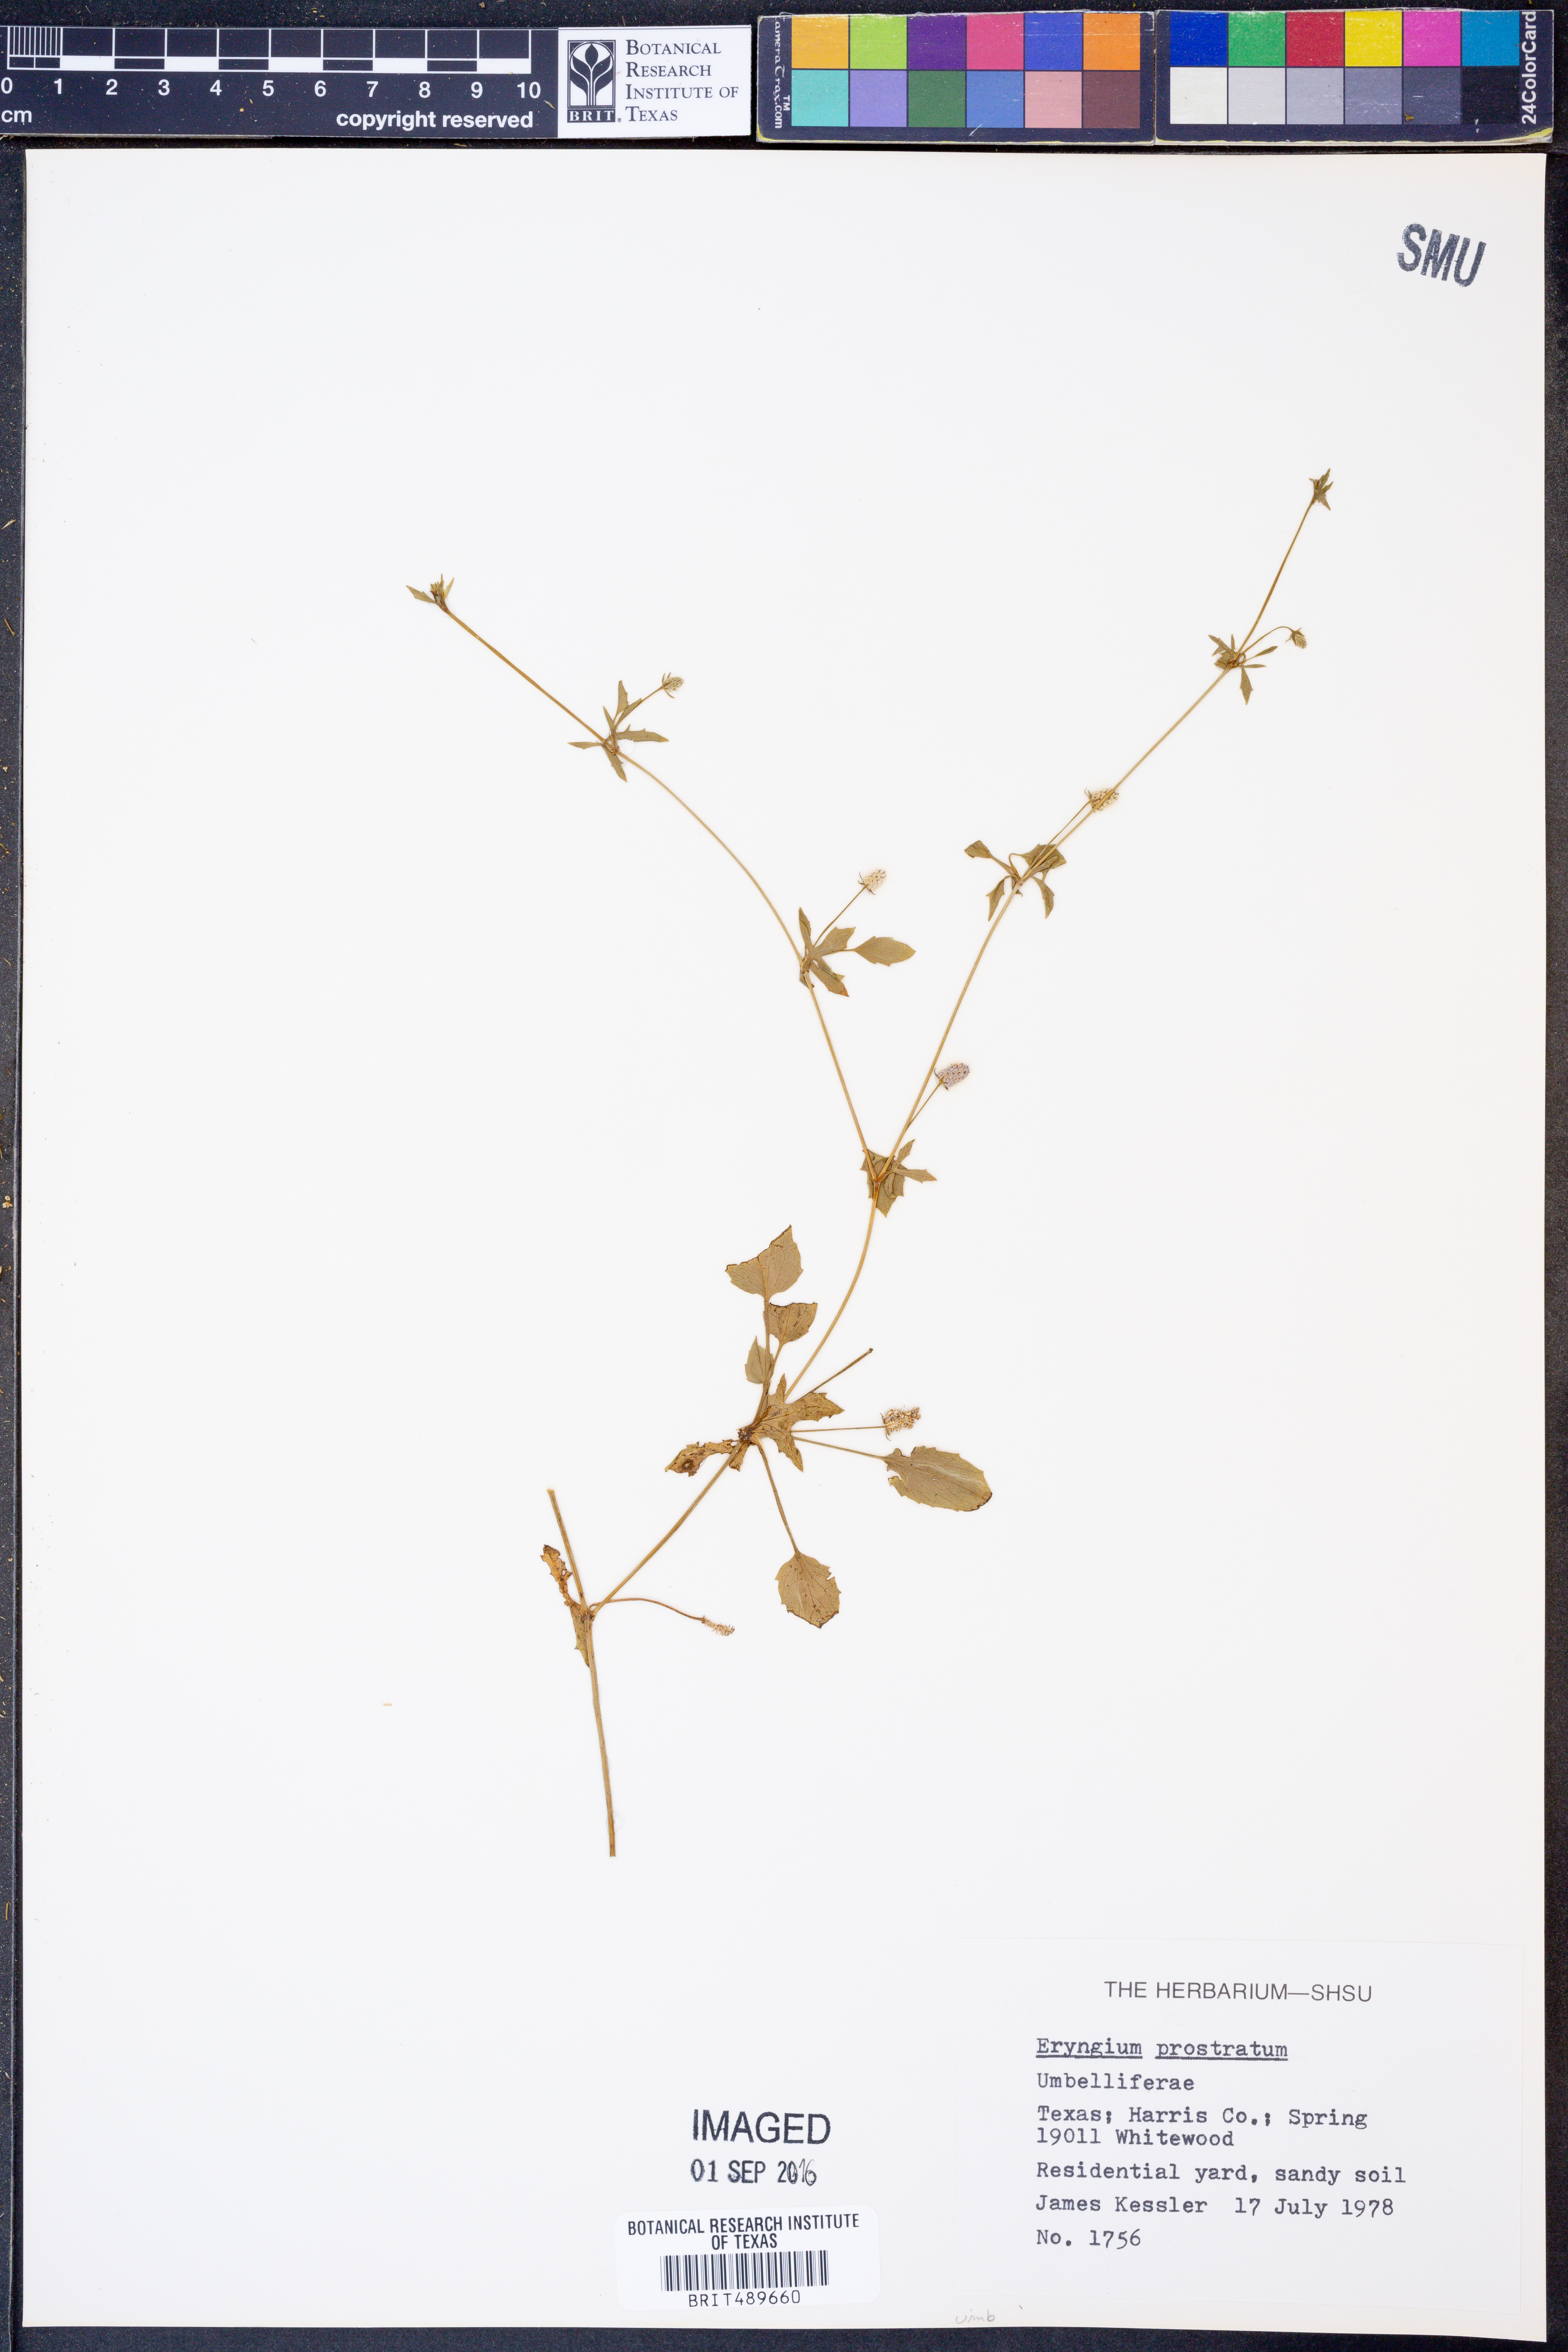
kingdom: Plantae
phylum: Tracheophyta
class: Magnoliopsida
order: Apiales
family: Apiaceae
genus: Eryngium
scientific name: Eryngium prostratum
